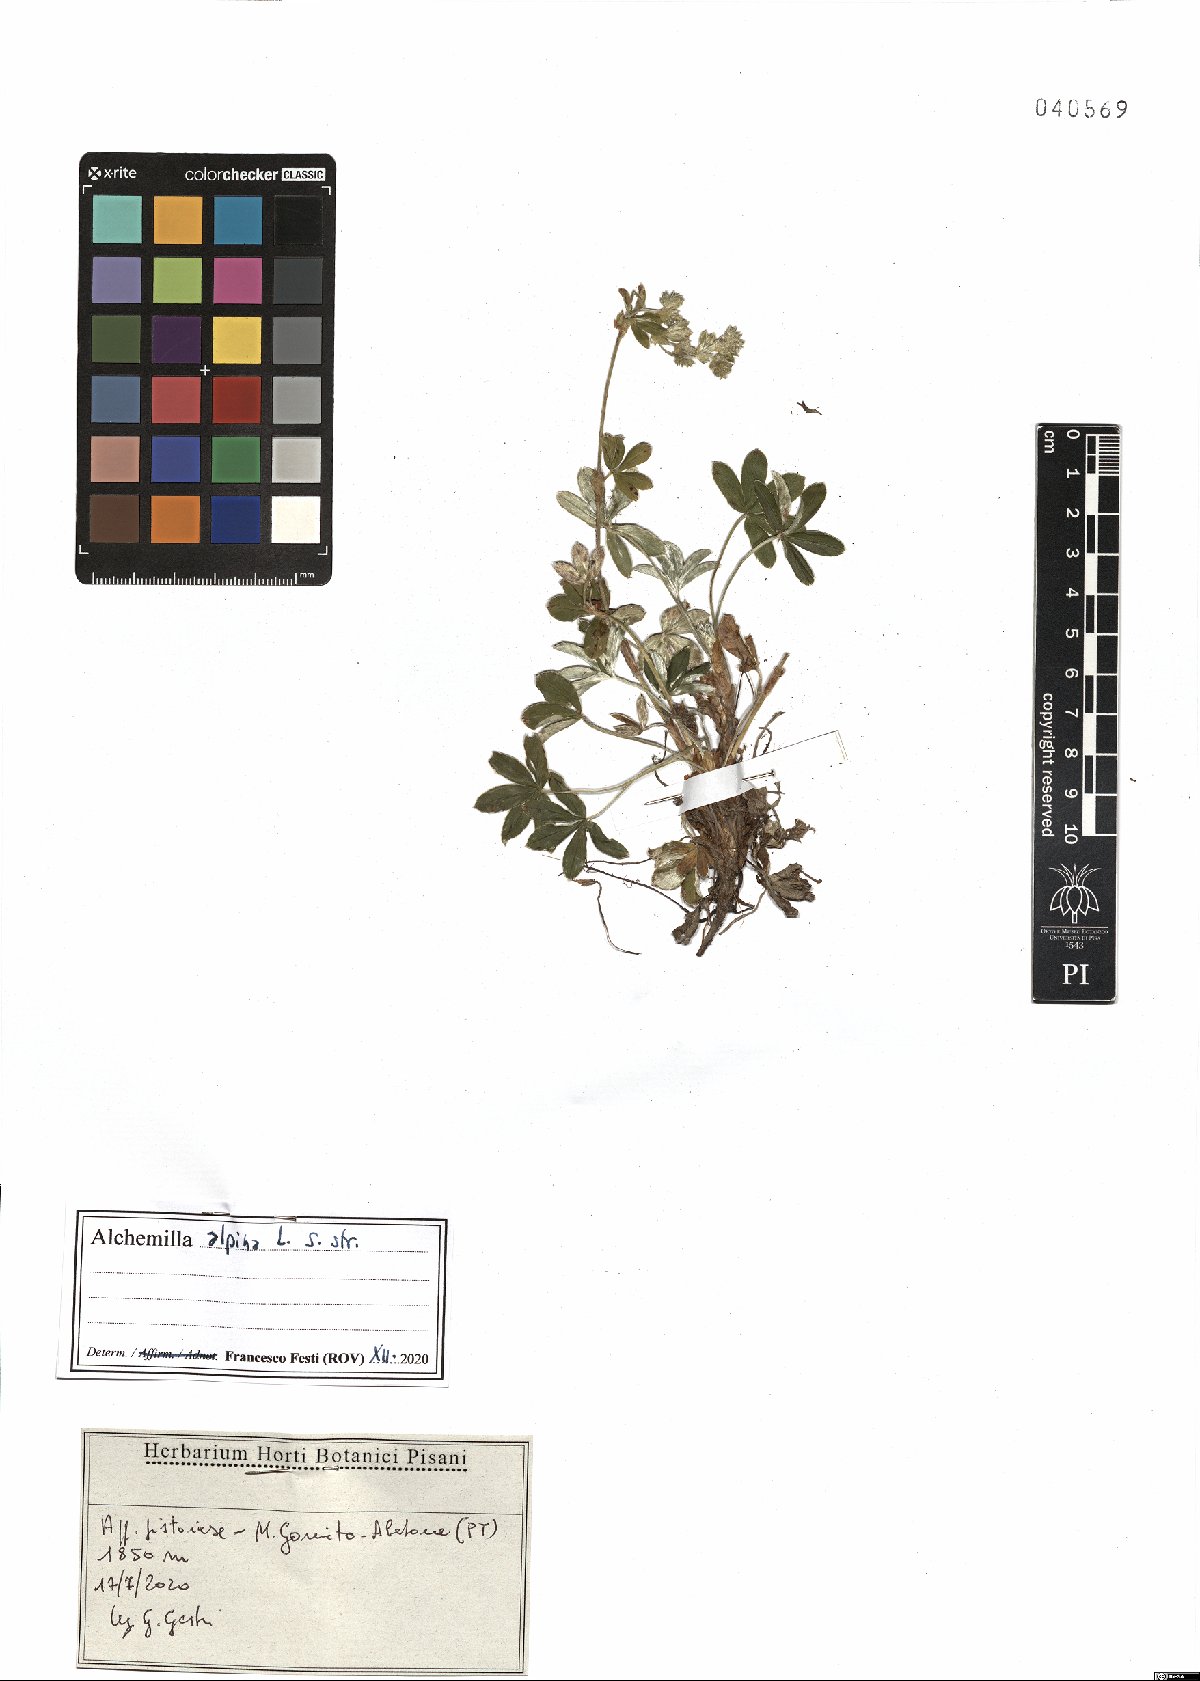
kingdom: Plantae
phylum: Tracheophyta
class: Magnoliopsida
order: Rosales
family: Rosaceae
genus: Alchemilla
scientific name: Alchemilla alpina
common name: Alpine lady's-mantle
